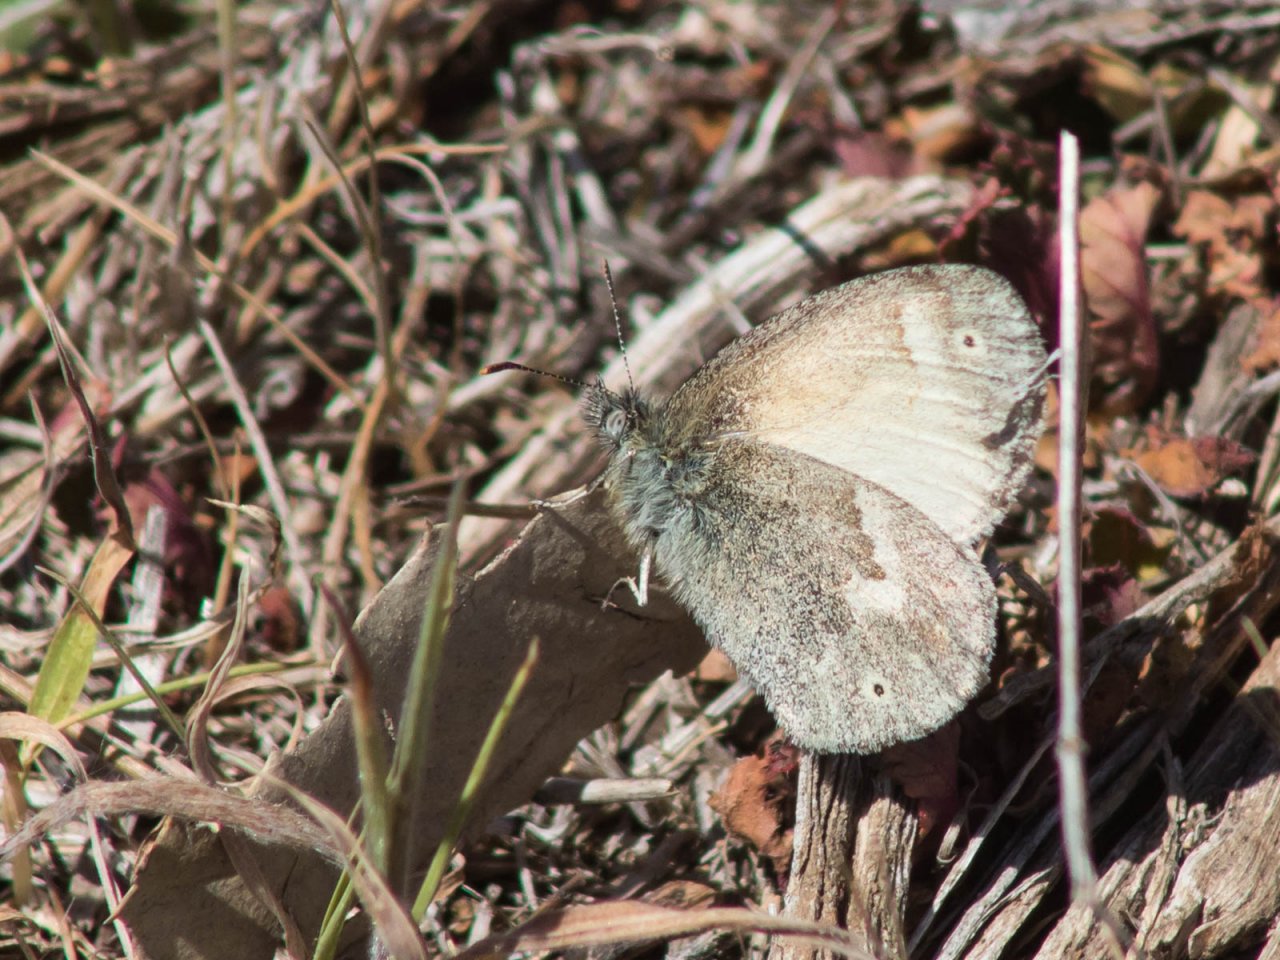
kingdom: Animalia
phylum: Arthropoda
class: Insecta
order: Lepidoptera
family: Nymphalidae
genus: Coenonympha
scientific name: Coenonympha tullia
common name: Large Heath
